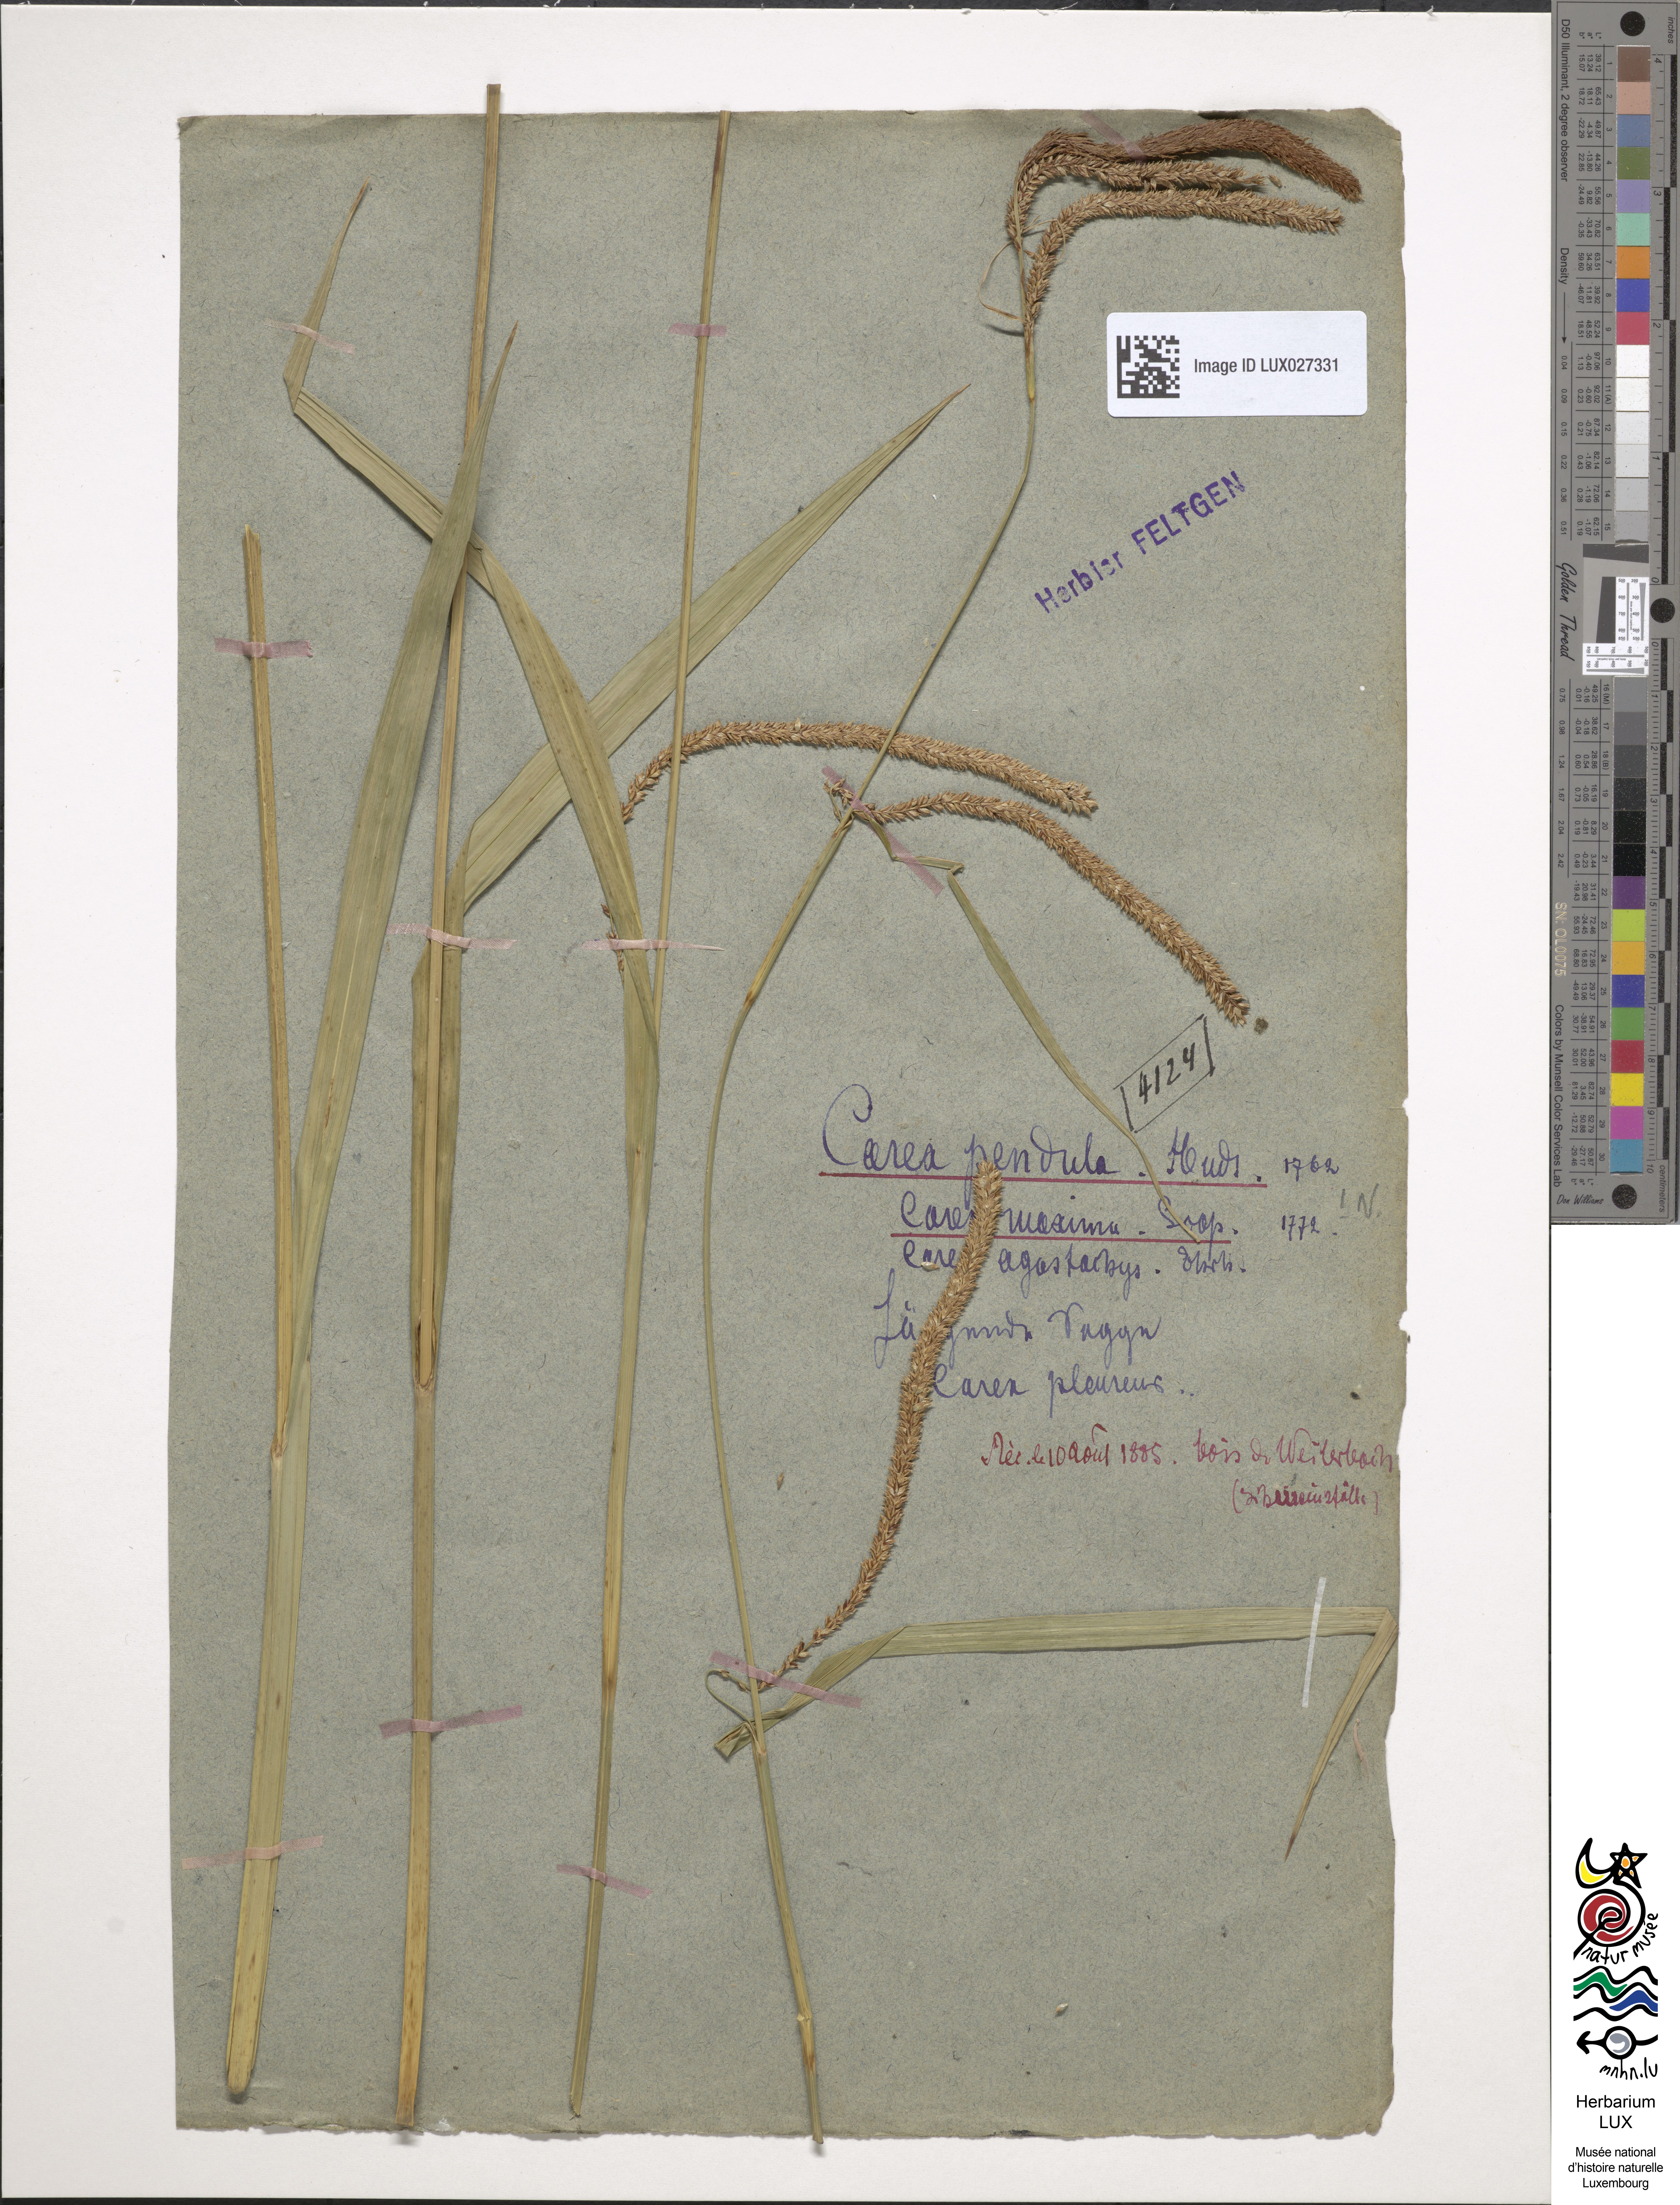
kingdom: Plantae
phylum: Tracheophyta
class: Liliopsida
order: Poales
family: Cyperaceae
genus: Carex
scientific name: Carex pendula
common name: Pendulous sedge
